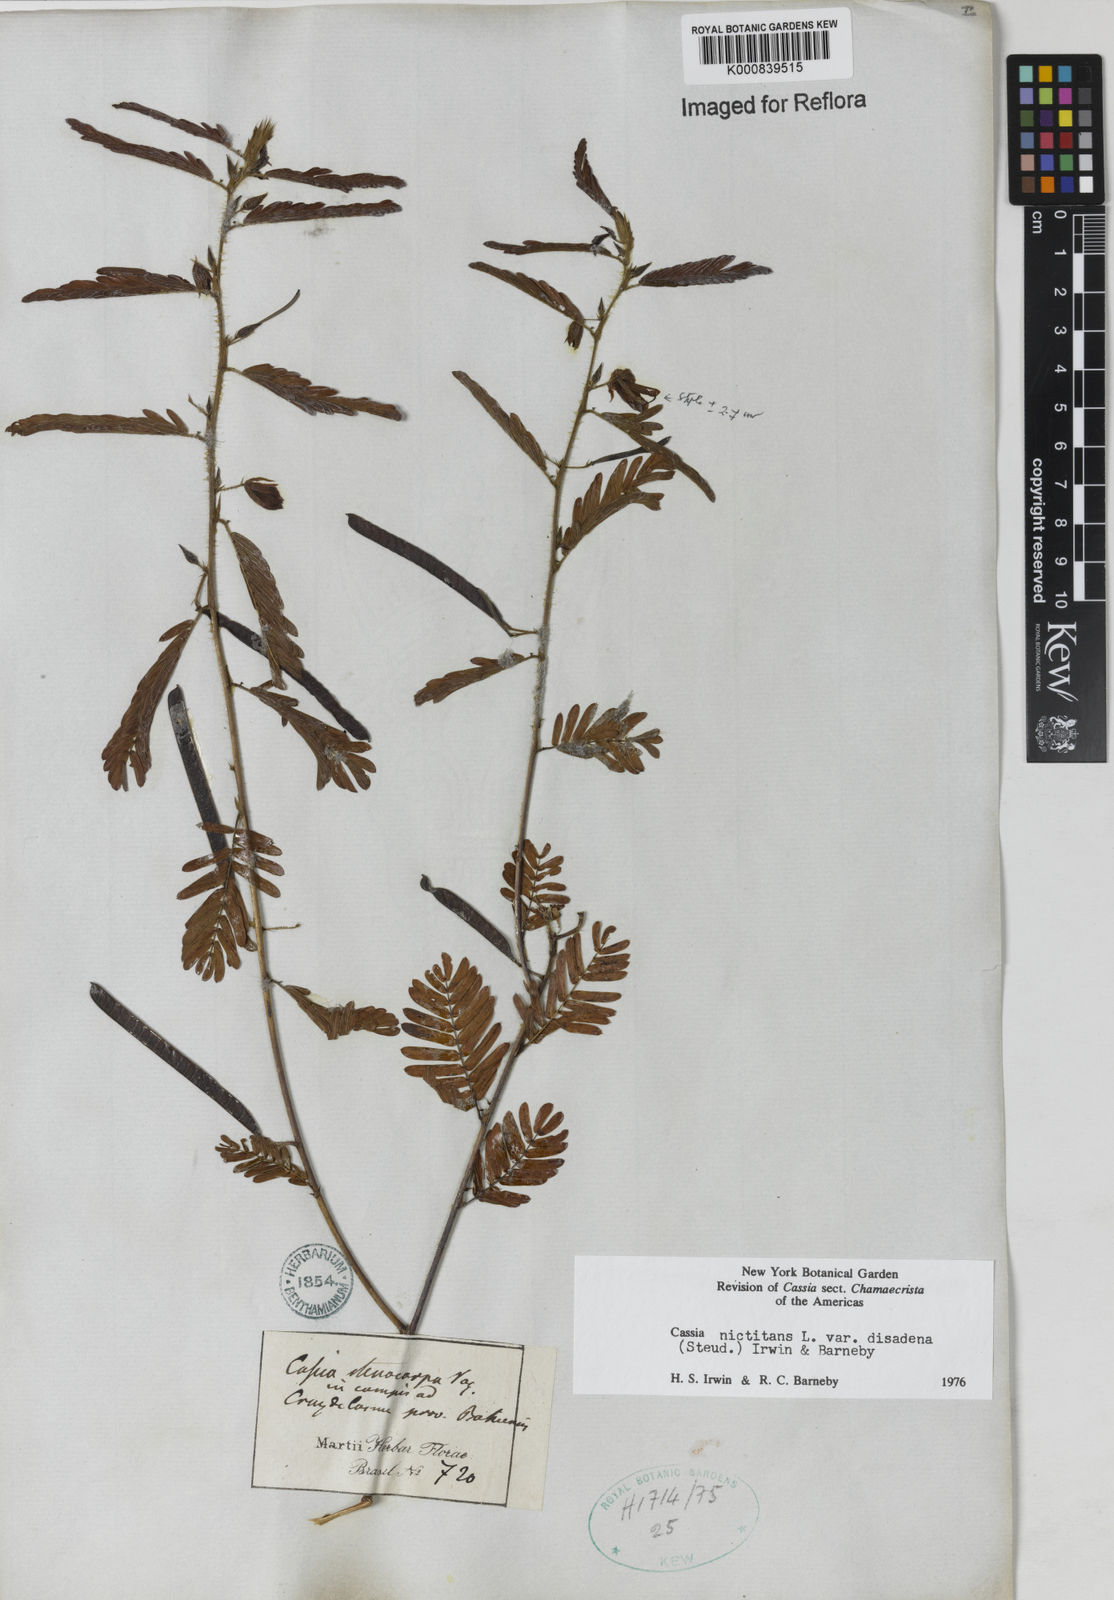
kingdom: Plantae
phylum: Tracheophyta
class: Magnoliopsida
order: Fabales
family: Fabaceae
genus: Chamaecrista
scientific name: Chamaecrista nictitans
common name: Sensitive cassia
